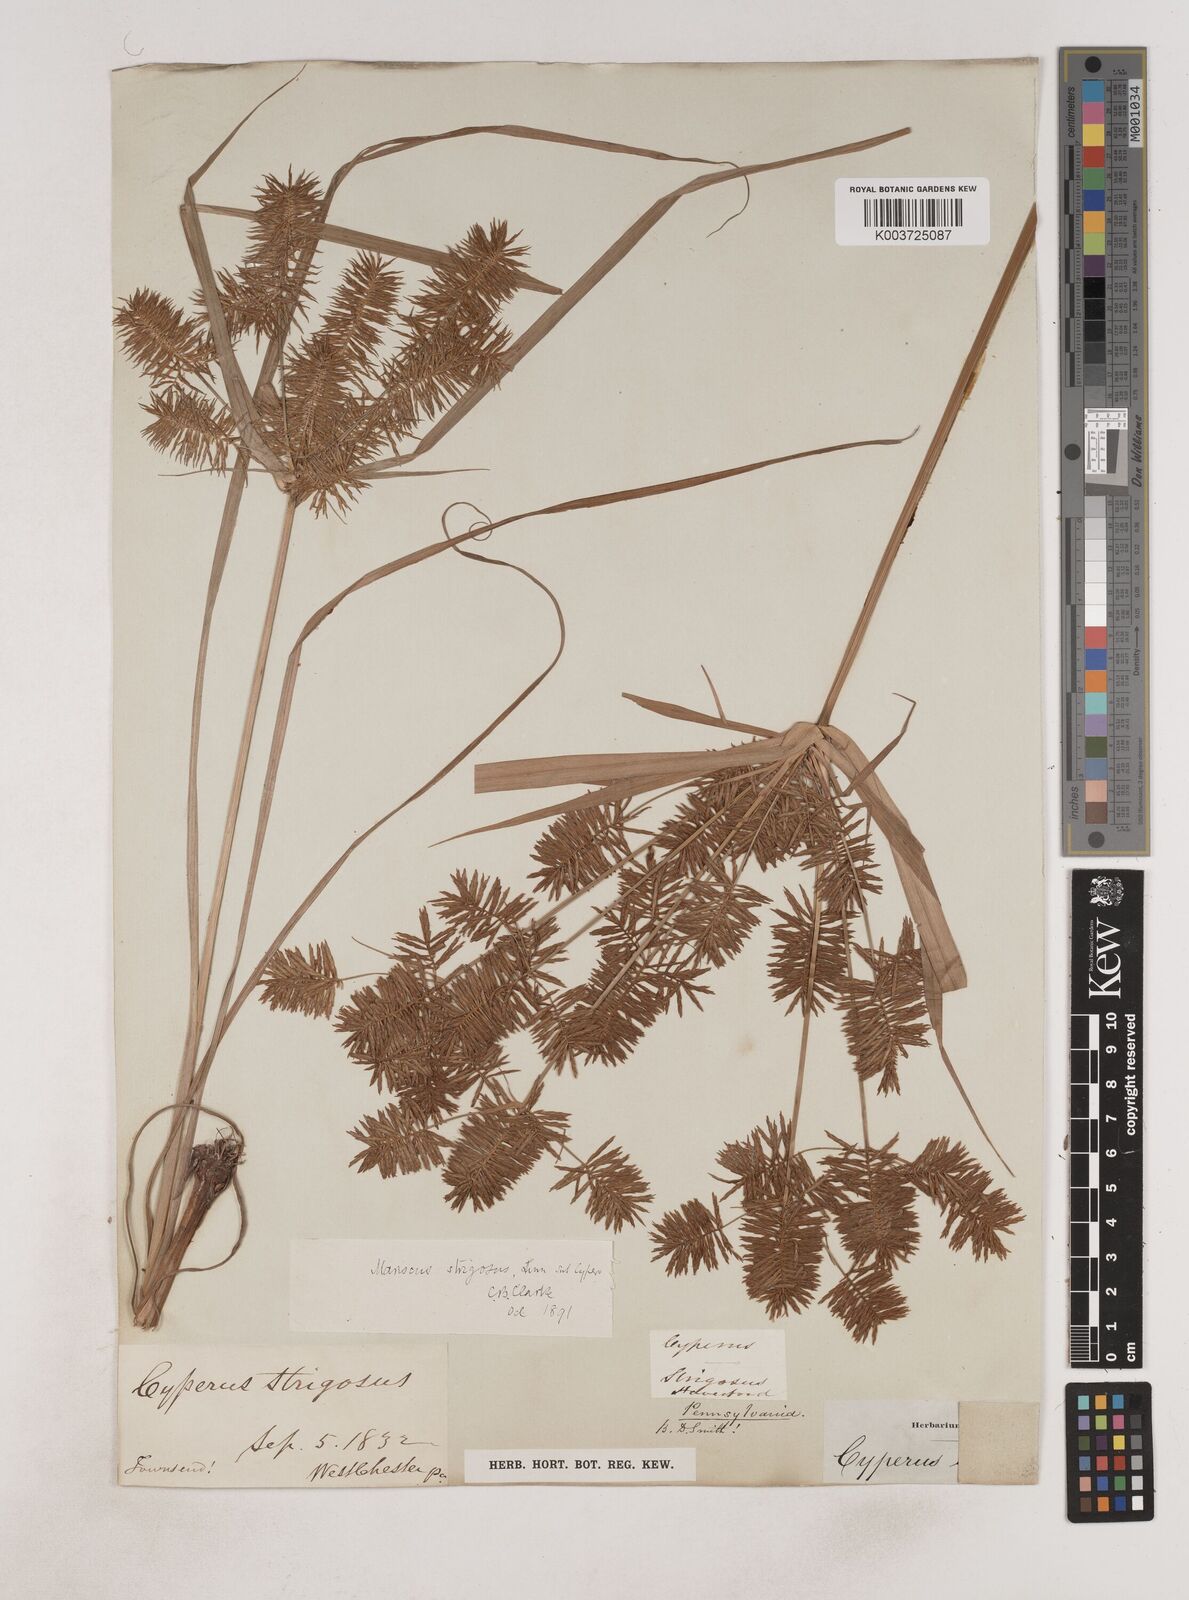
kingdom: Plantae
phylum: Tracheophyta
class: Liliopsida
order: Poales
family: Cyperaceae
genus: Cyperus
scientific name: Cyperus strigosus
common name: False nutsedge
